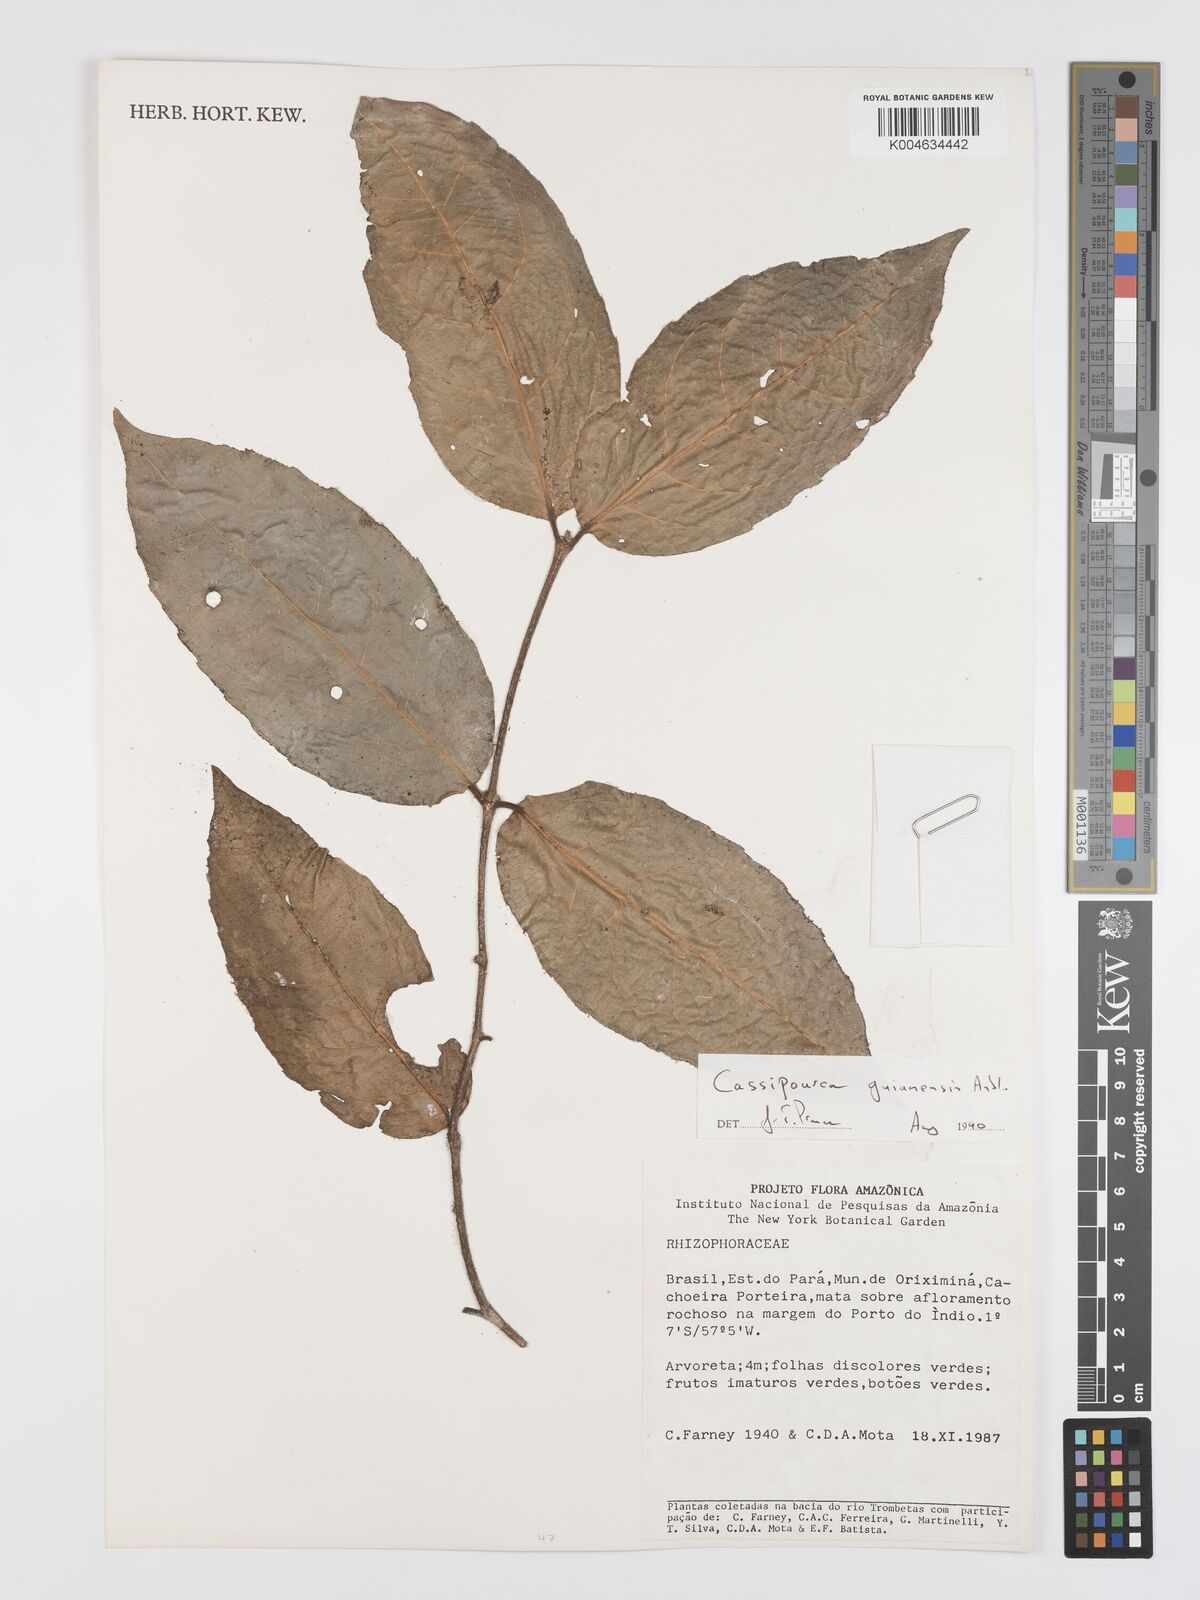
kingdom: Plantae
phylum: Tracheophyta
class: Magnoliopsida
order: Malpighiales
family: Rhizophoraceae
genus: Cassipourea
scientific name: Cassipourea guianensis
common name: Bastard waterwood
